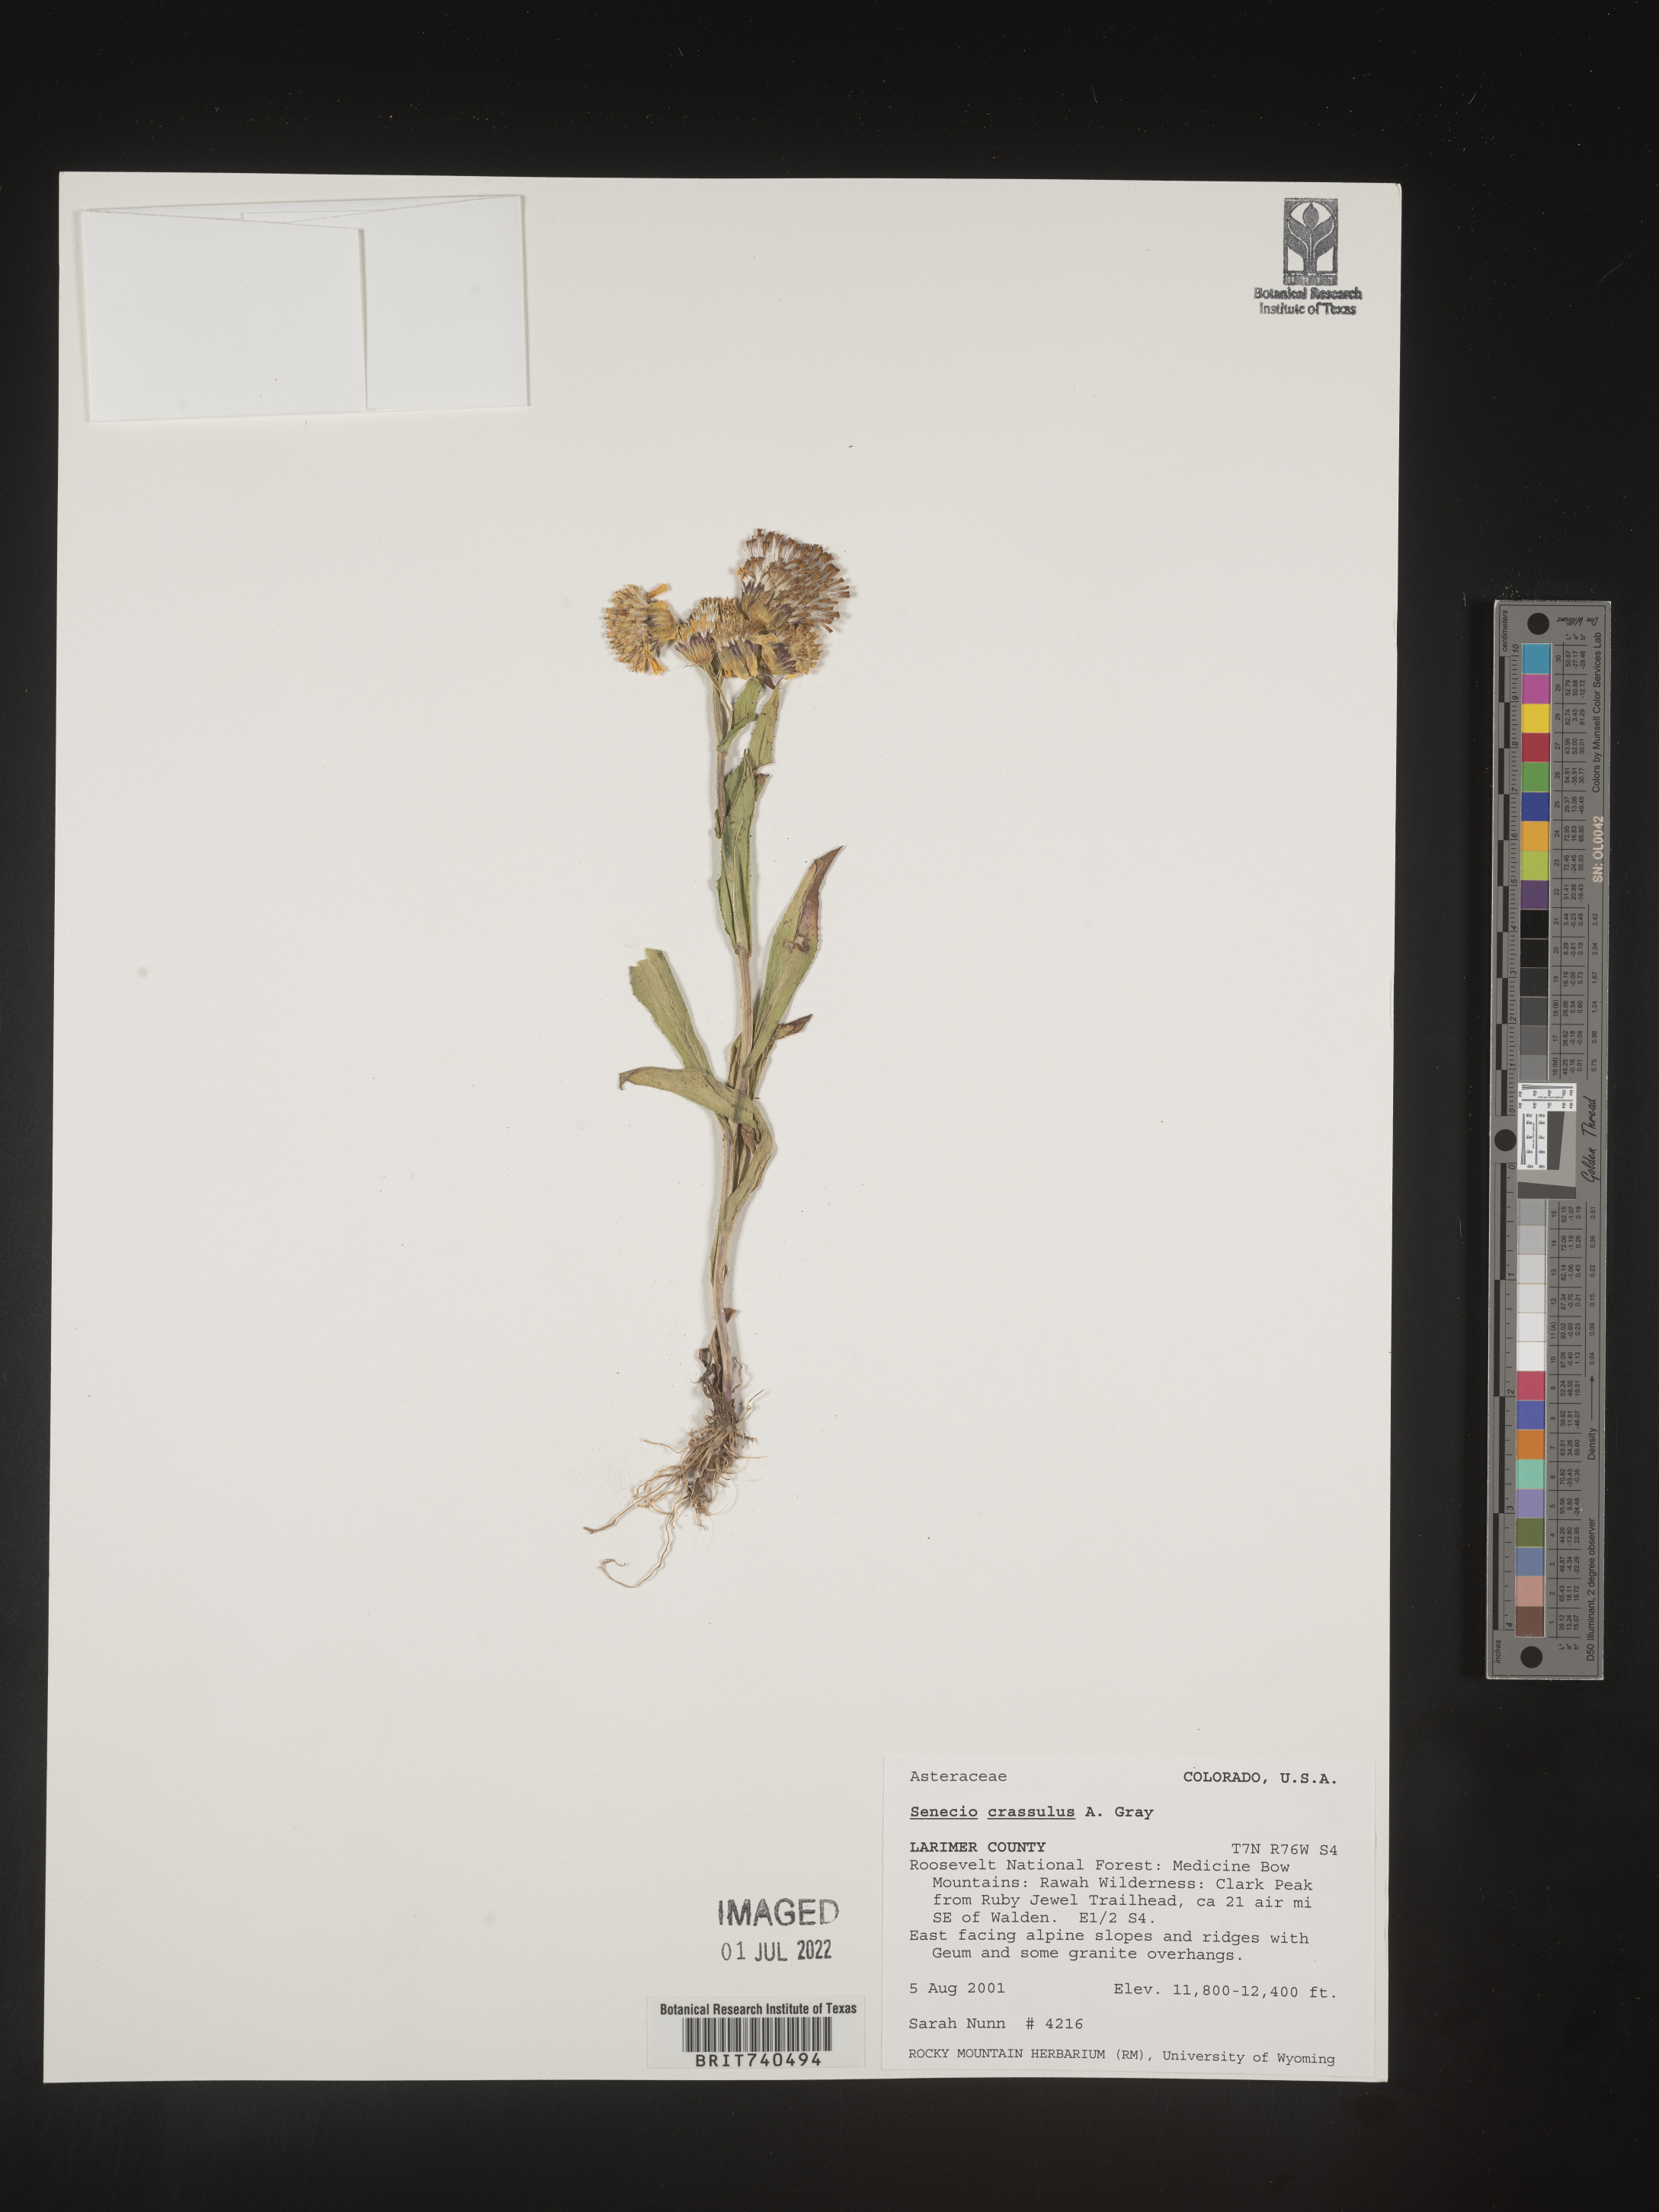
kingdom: Plantae
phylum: Tracheophyta
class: Magnoliopsida
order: Asterales
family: Asteraceae
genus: Senecio
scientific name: Senecio crassulus
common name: Mountain-meadow butterweed
